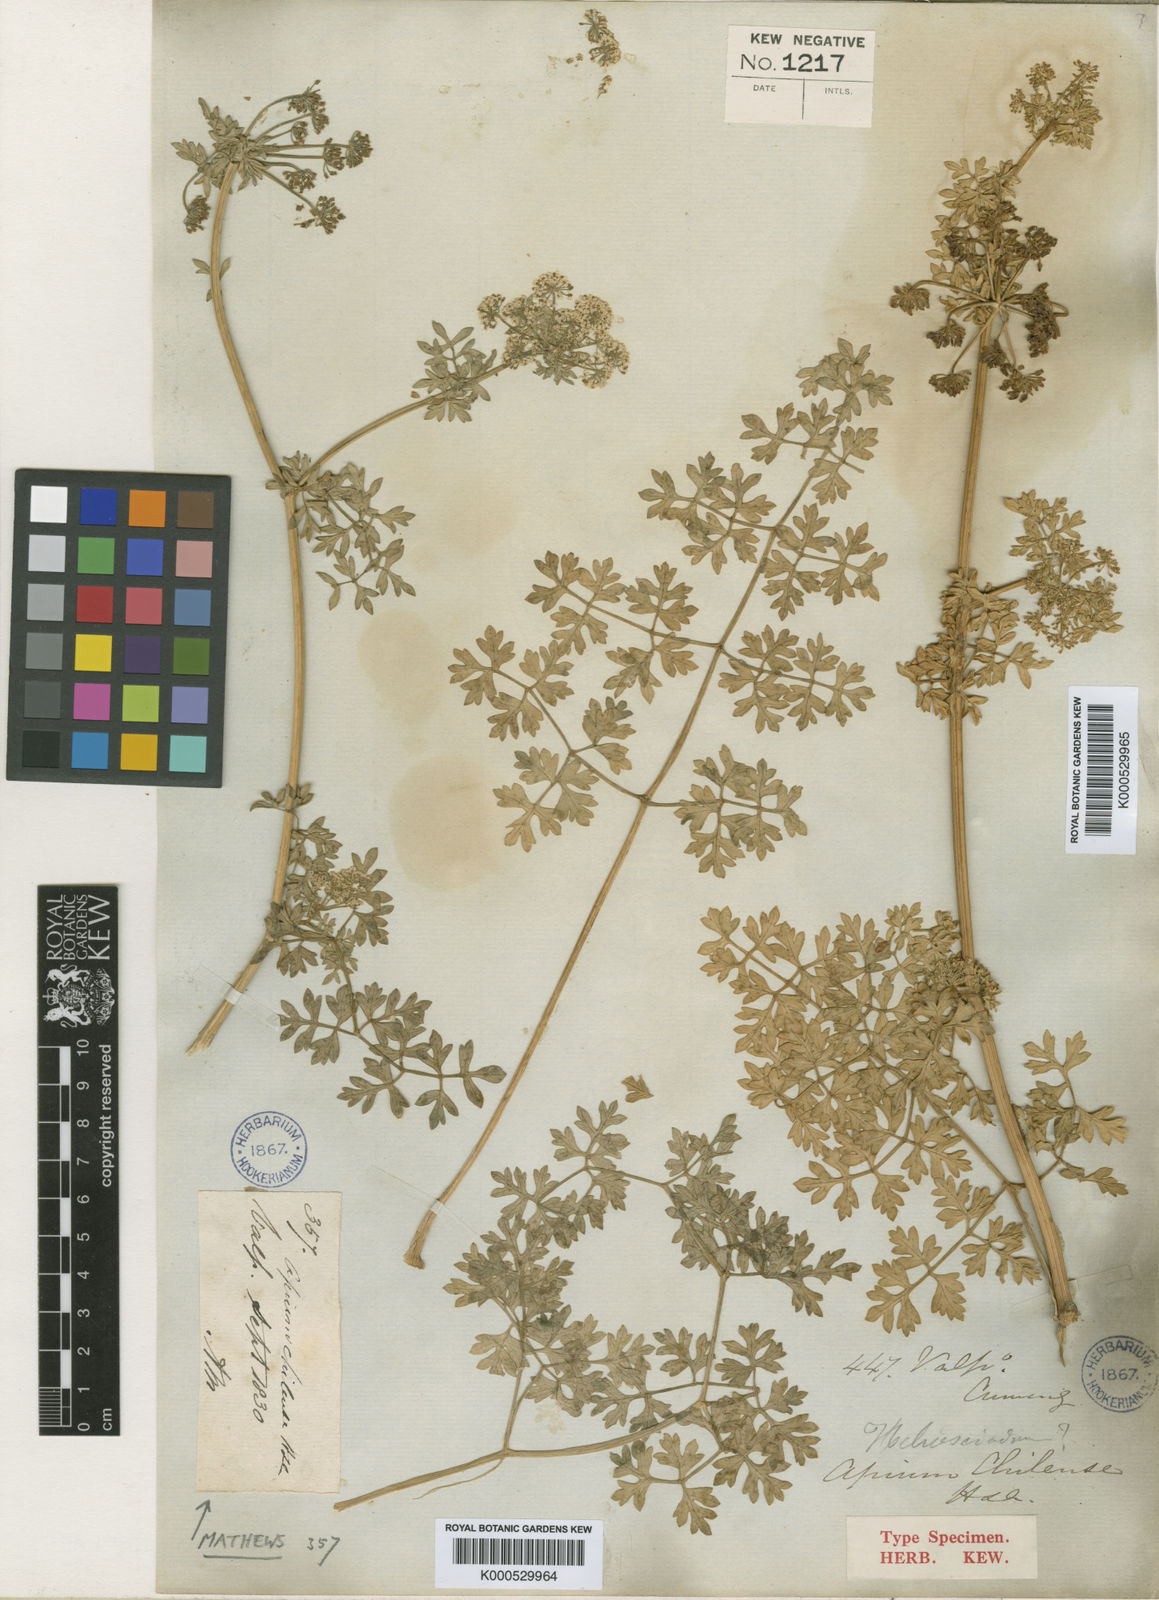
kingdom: Plantae
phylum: Tracheophyta
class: Magnoliopsida
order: Apiales
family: Apiaceae
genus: Apium
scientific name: Apium chilense
